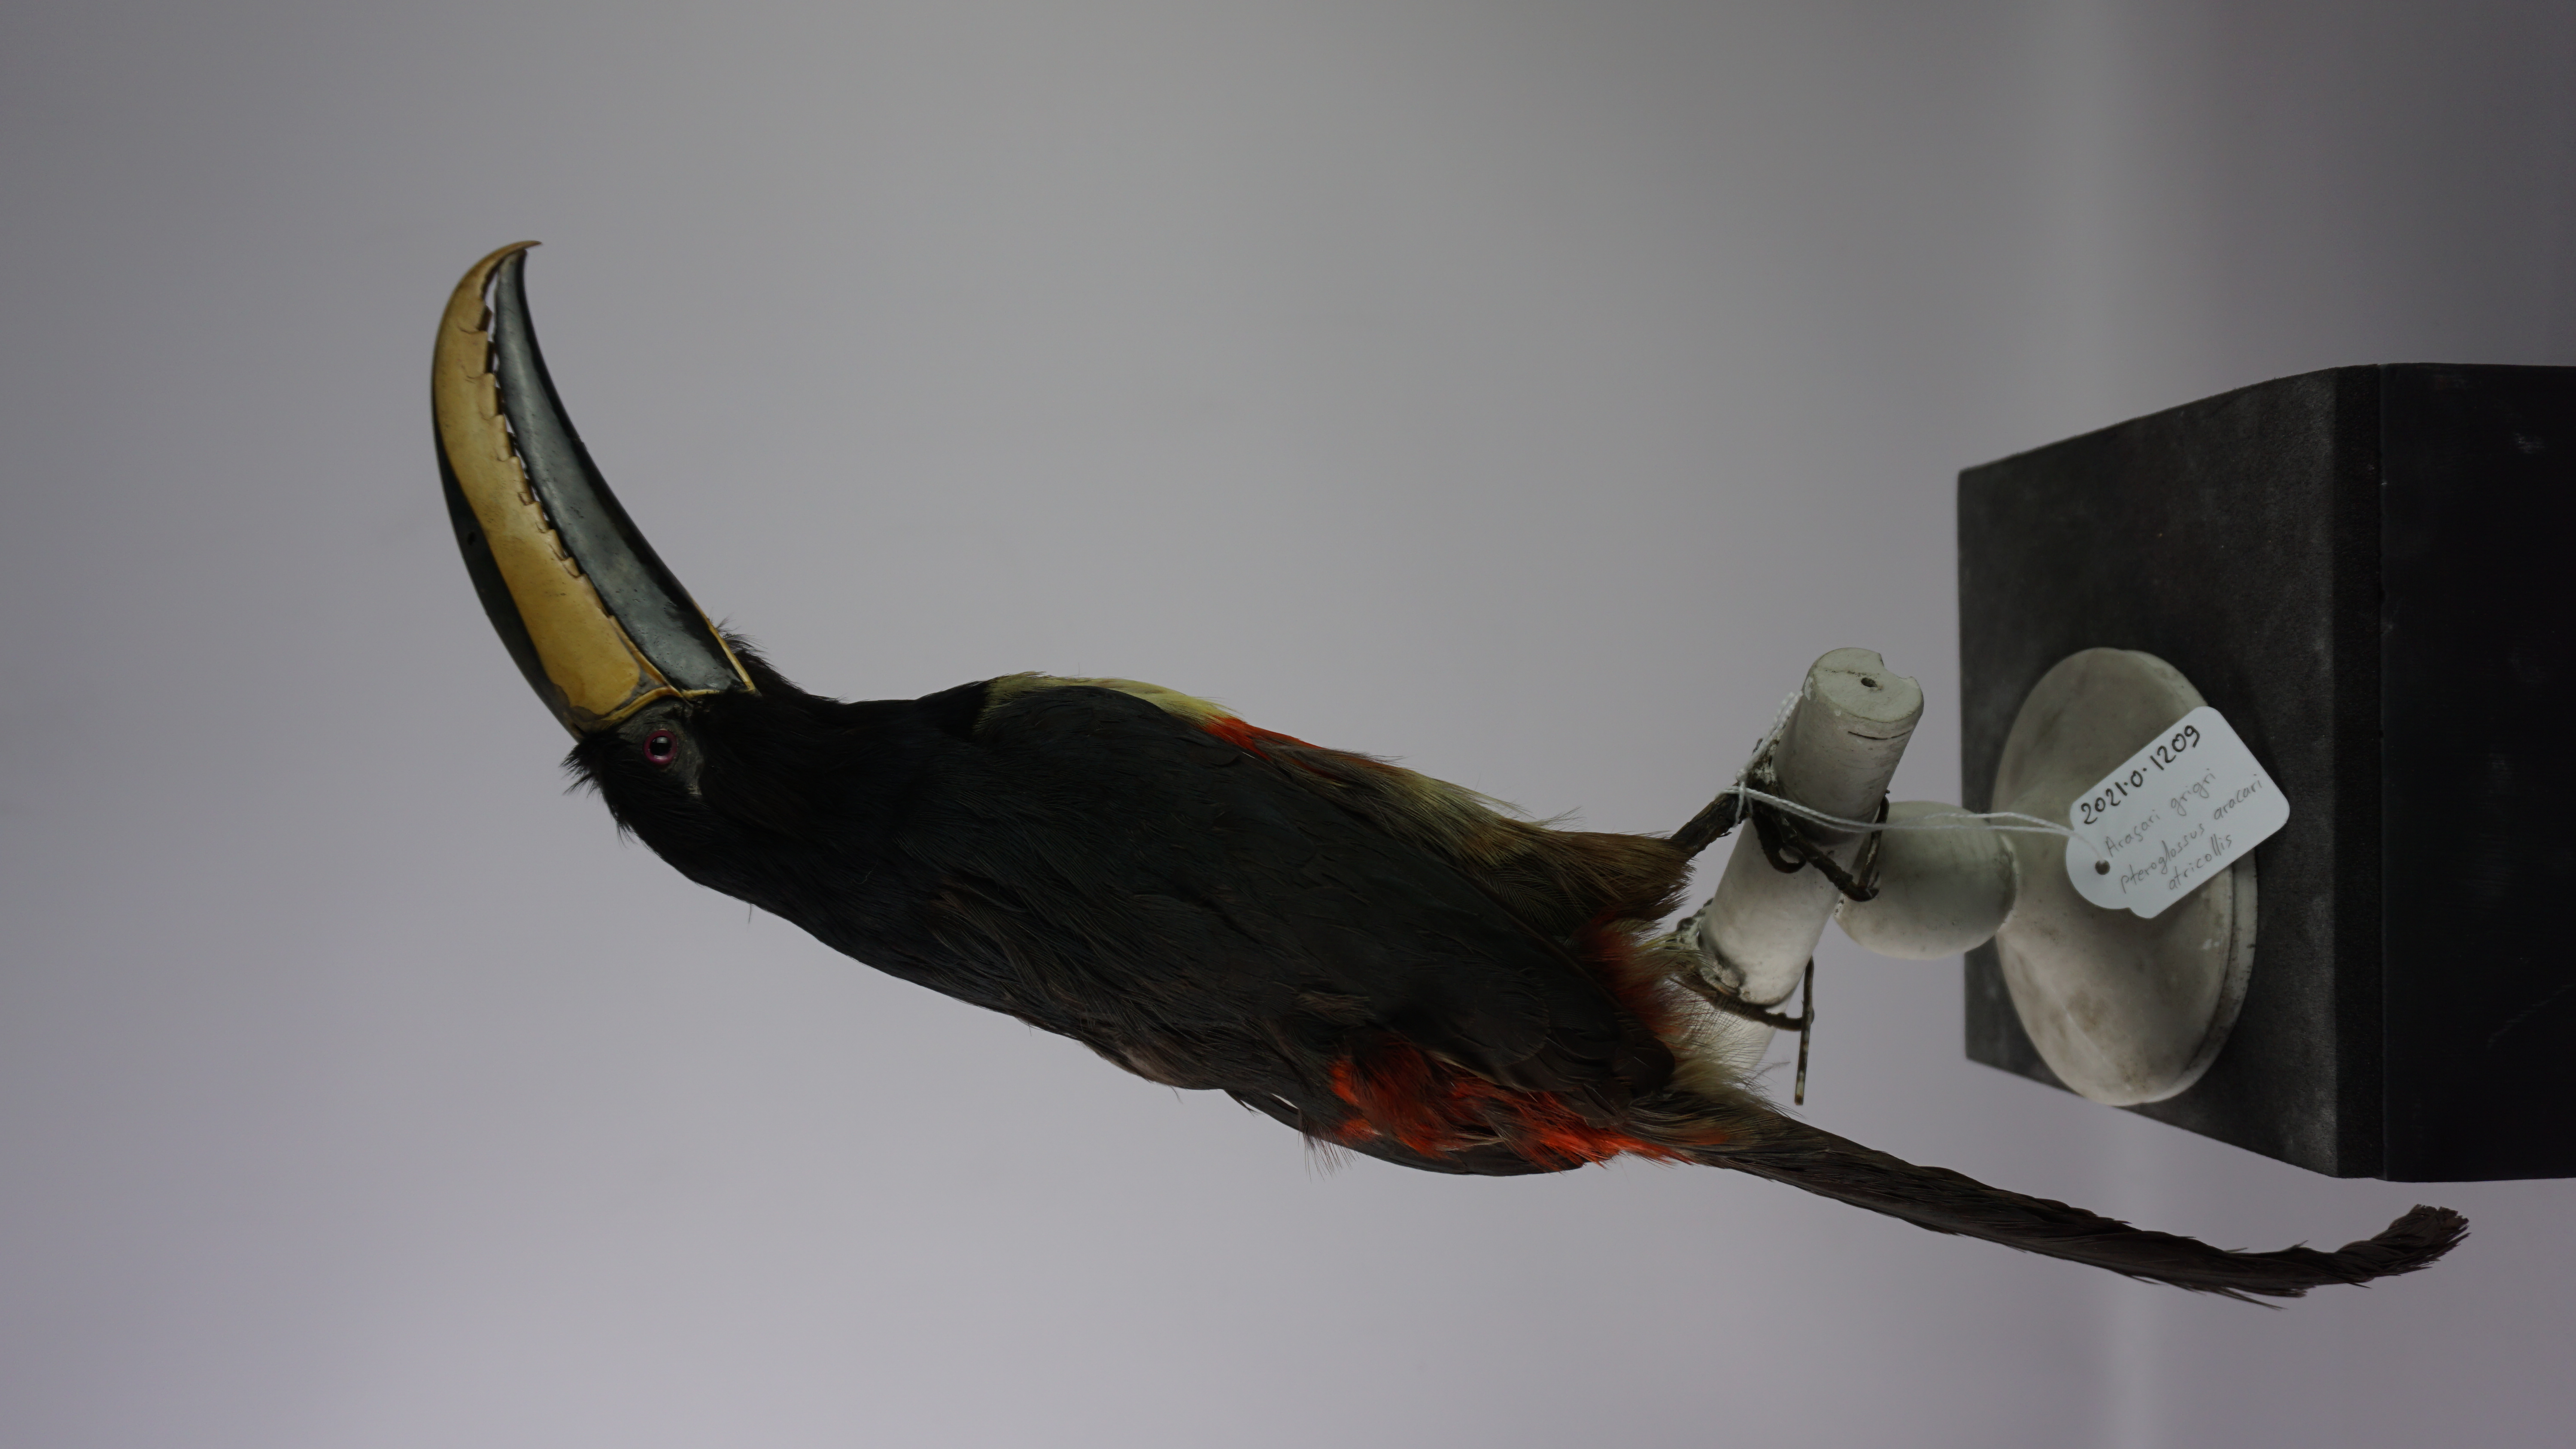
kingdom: Animalia
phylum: Chordata
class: Aves
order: Piciformes
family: Ramphastidae
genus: Pteroglossus
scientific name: Pteroglossus aracari
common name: Black-necked aracari
